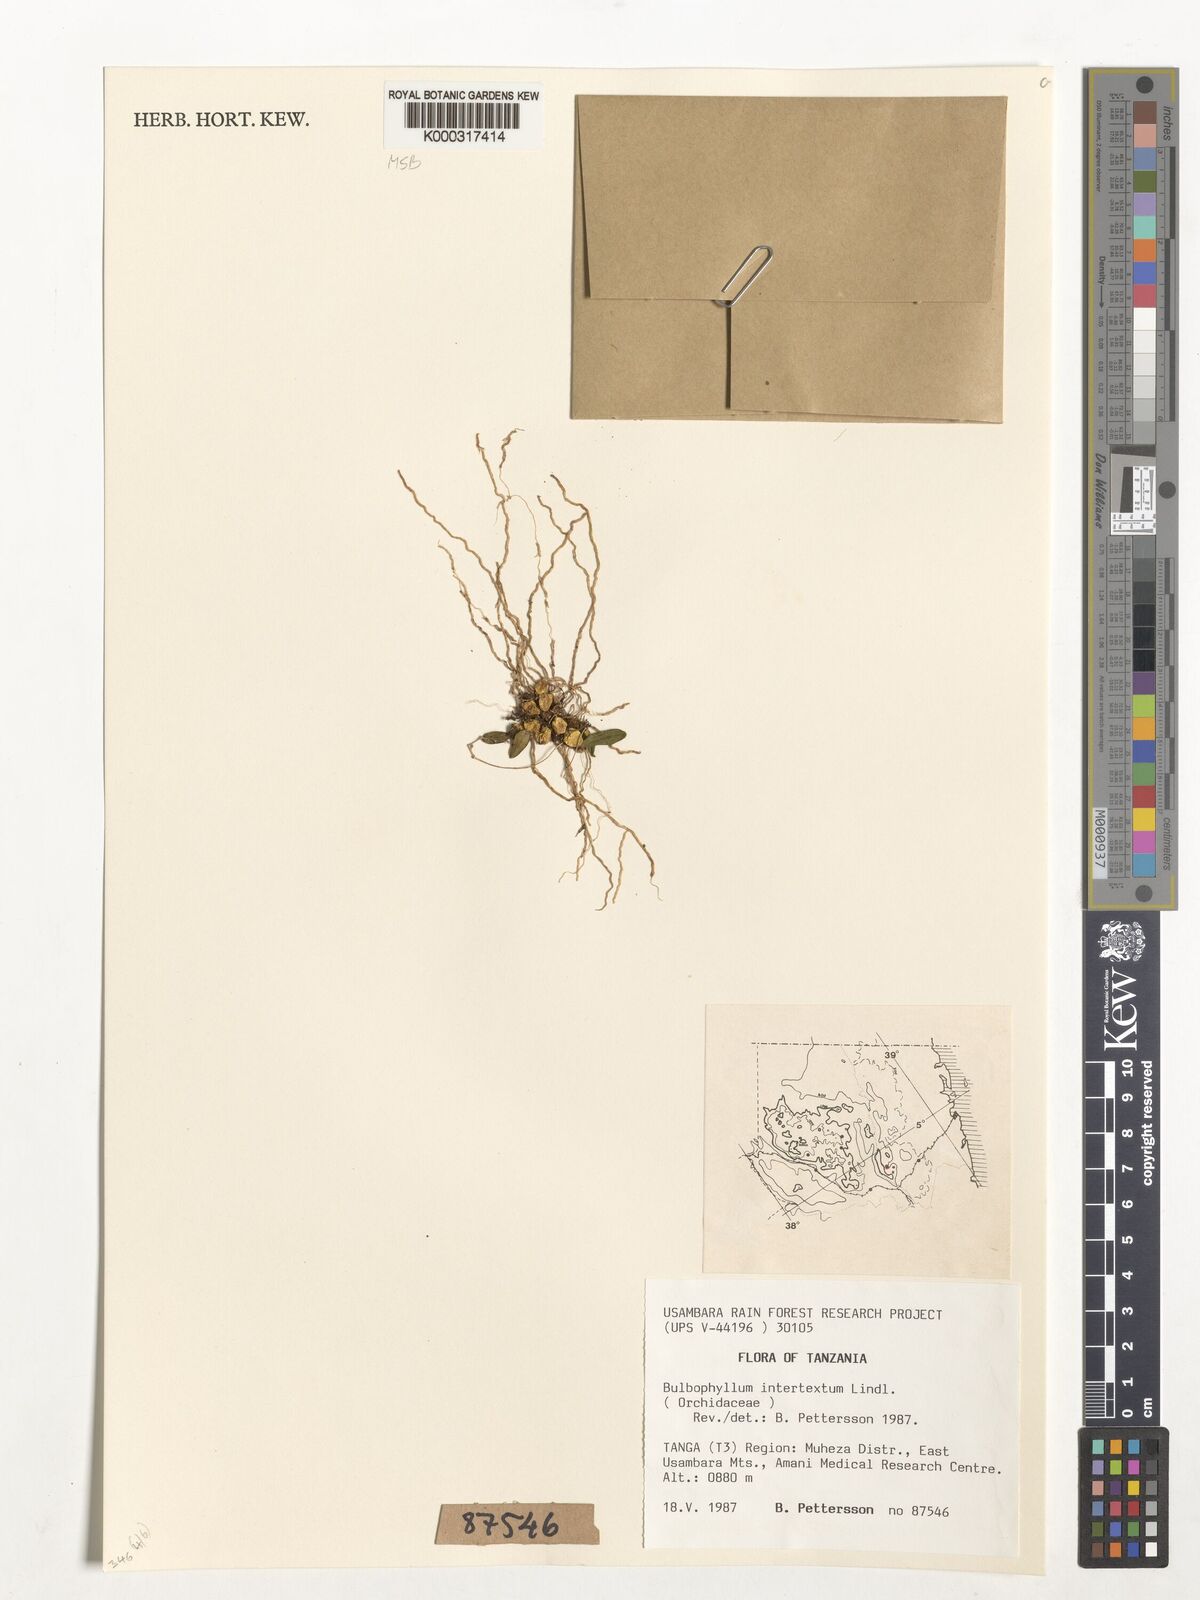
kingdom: Plantae
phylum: Tracheophyta
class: Liliopsida
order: Asparagales
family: Orchidaceae
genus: Bulbophyllum
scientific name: Bulbophyllum intertextum
